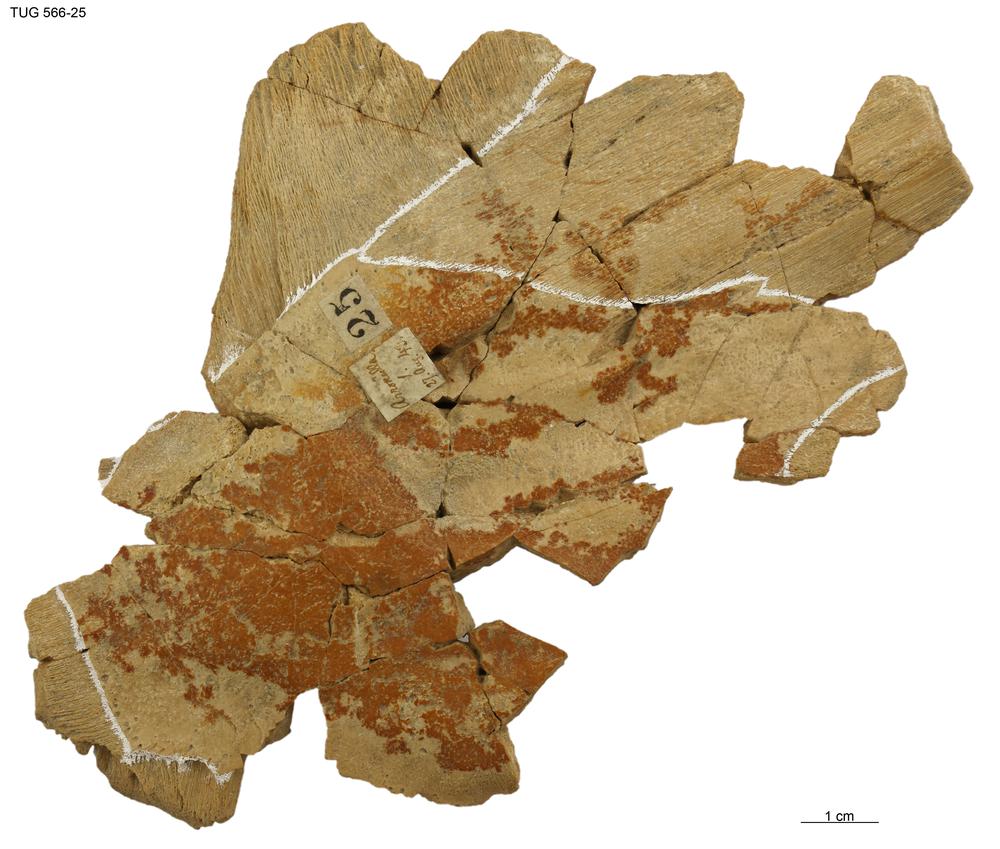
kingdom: Animalia
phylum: Chordata
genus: Homosteus
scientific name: Homosteus sulcatus
